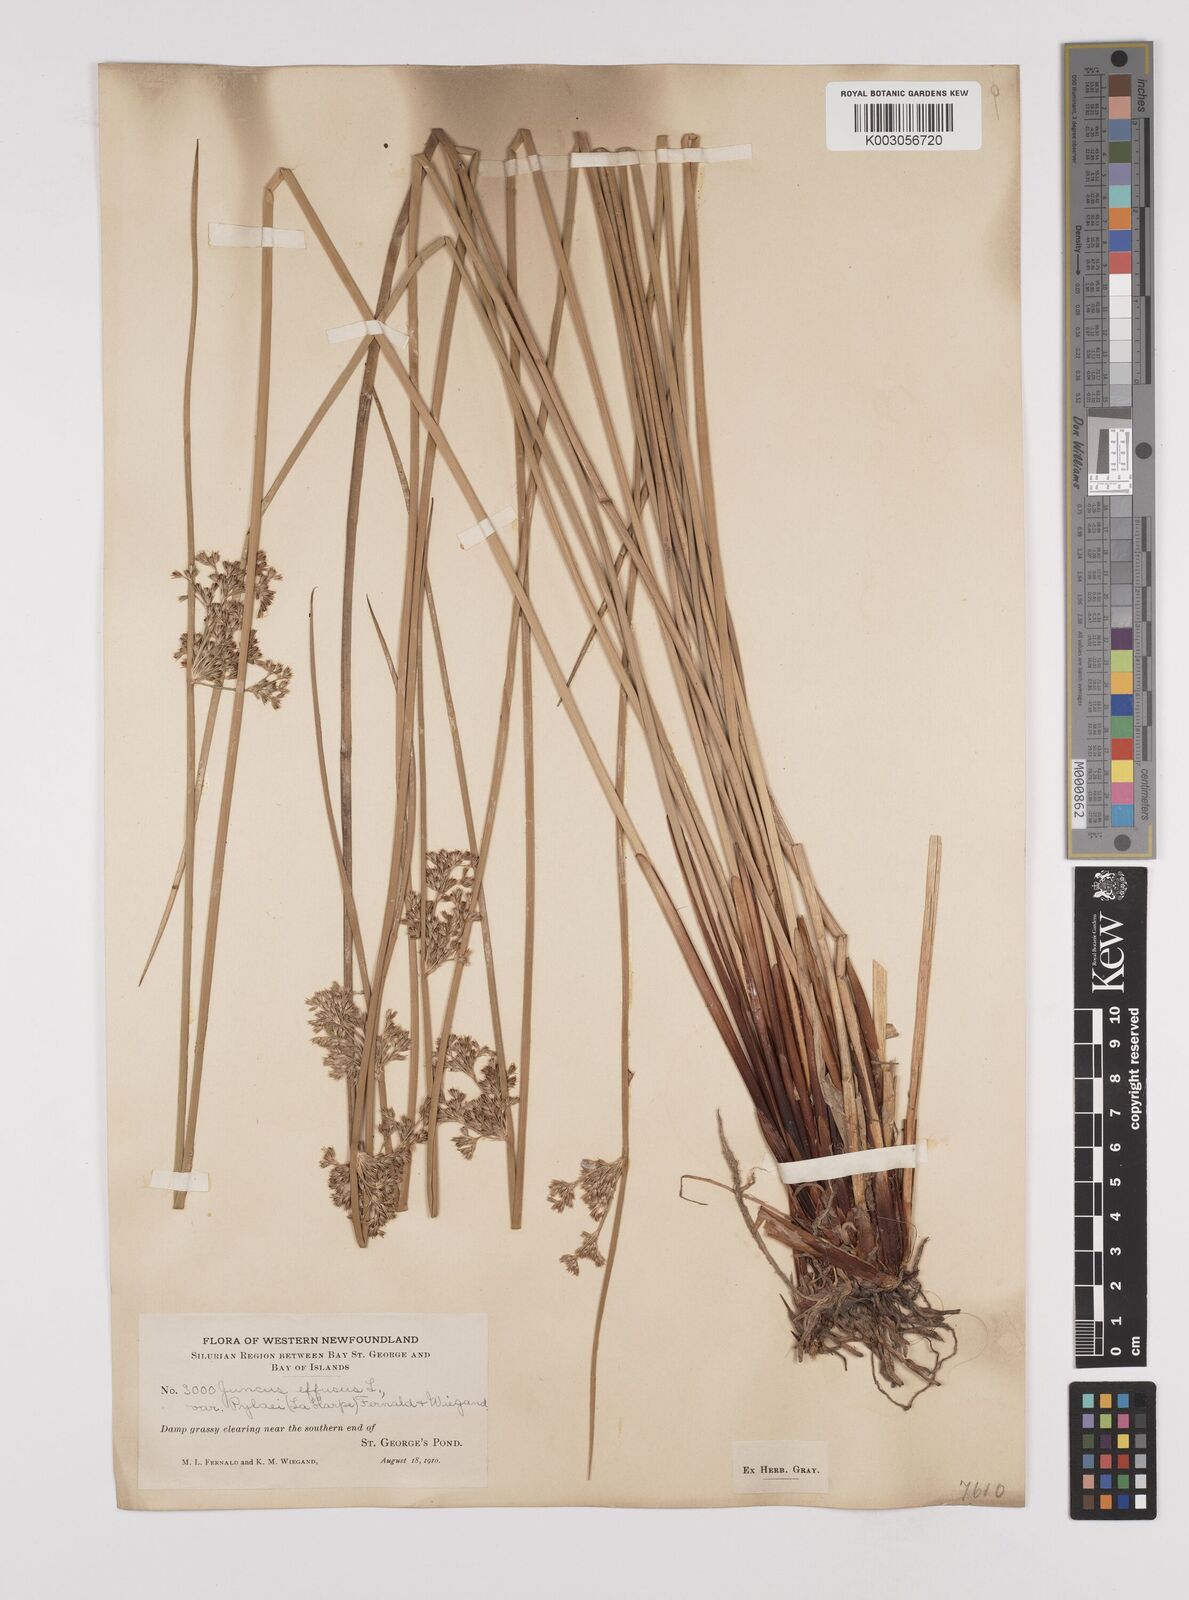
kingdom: Plantae
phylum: Tracheophyta
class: Liliopsida
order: Poales
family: Juncaceae
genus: Juncus
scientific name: Juncus pylaei
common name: Common rush
